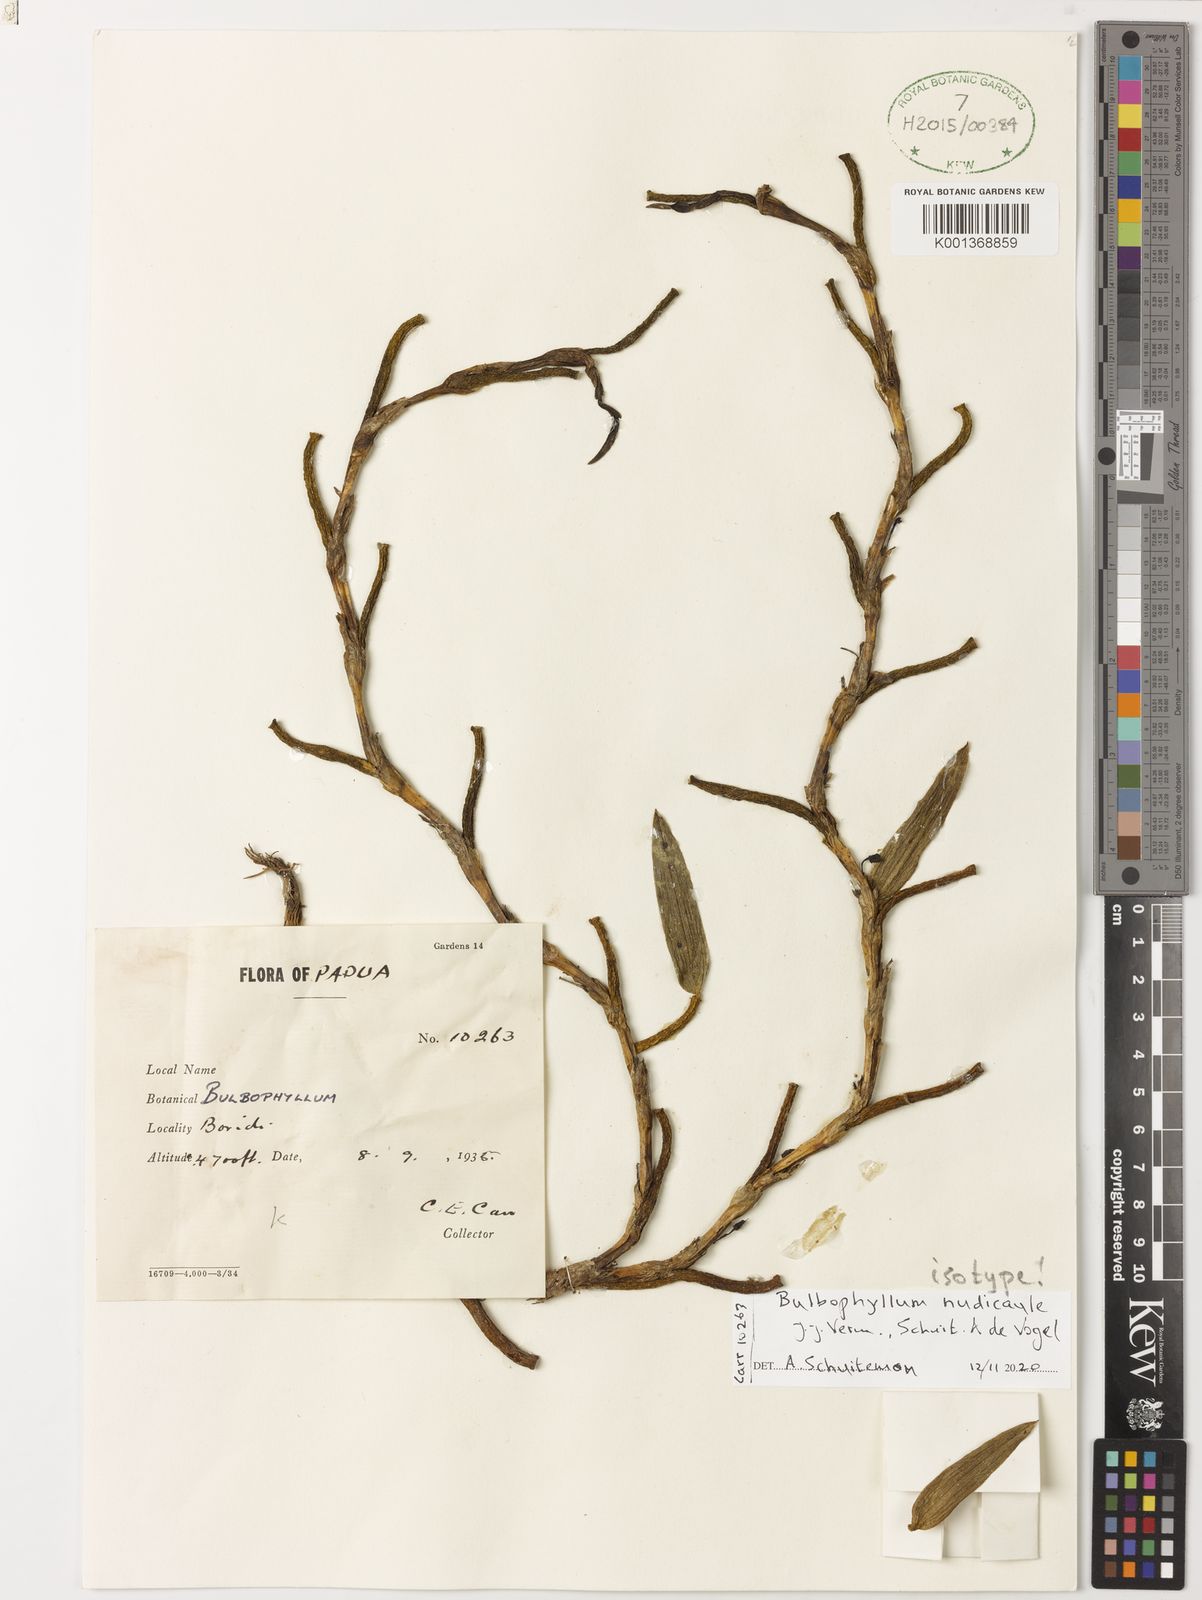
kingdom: Plantae
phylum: Tracheophyta
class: Liliopsida
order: Asparagales
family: Orchidaceae
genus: Bulbophyllum
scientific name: Bulbophyllum
